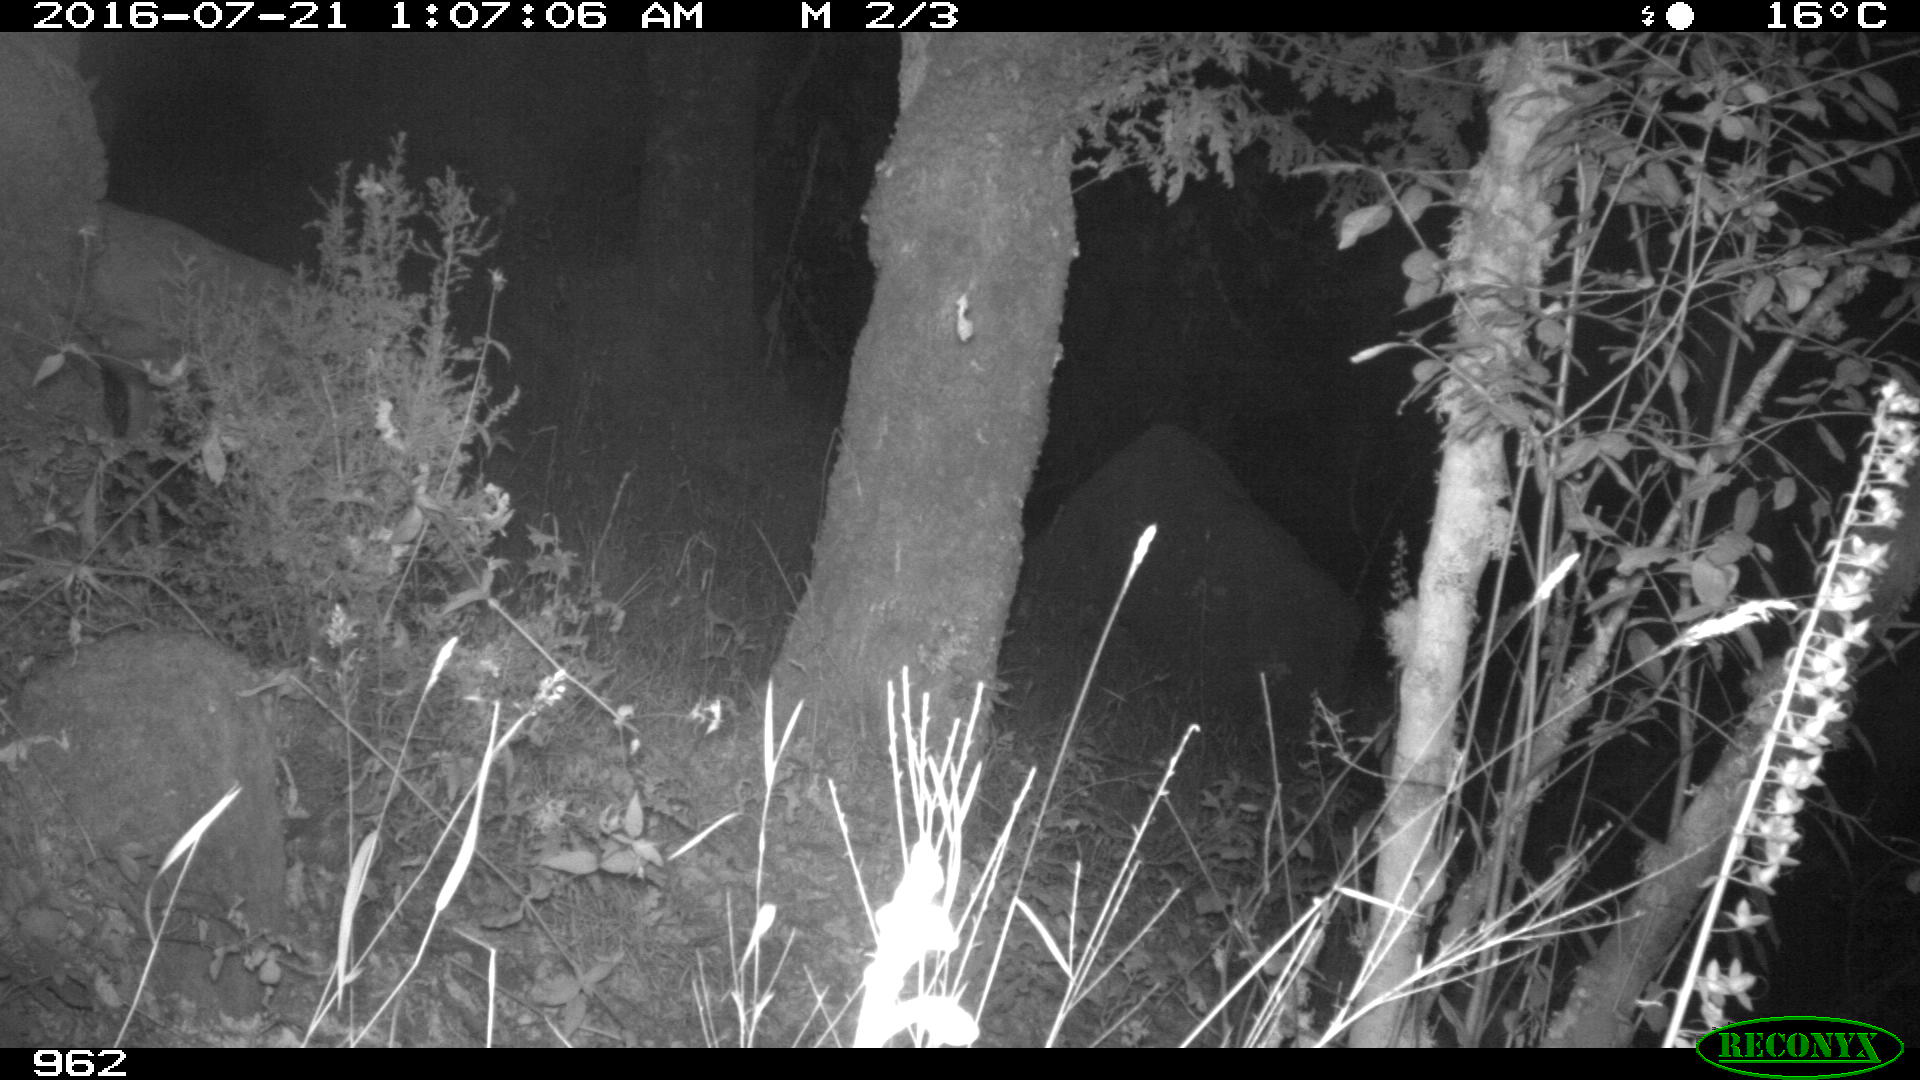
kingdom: Animalia
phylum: Chordata
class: Mammalia
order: Artiodactyla
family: Cervidae
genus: Capreolus
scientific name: Capreolus capreolus
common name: Western roe deer
